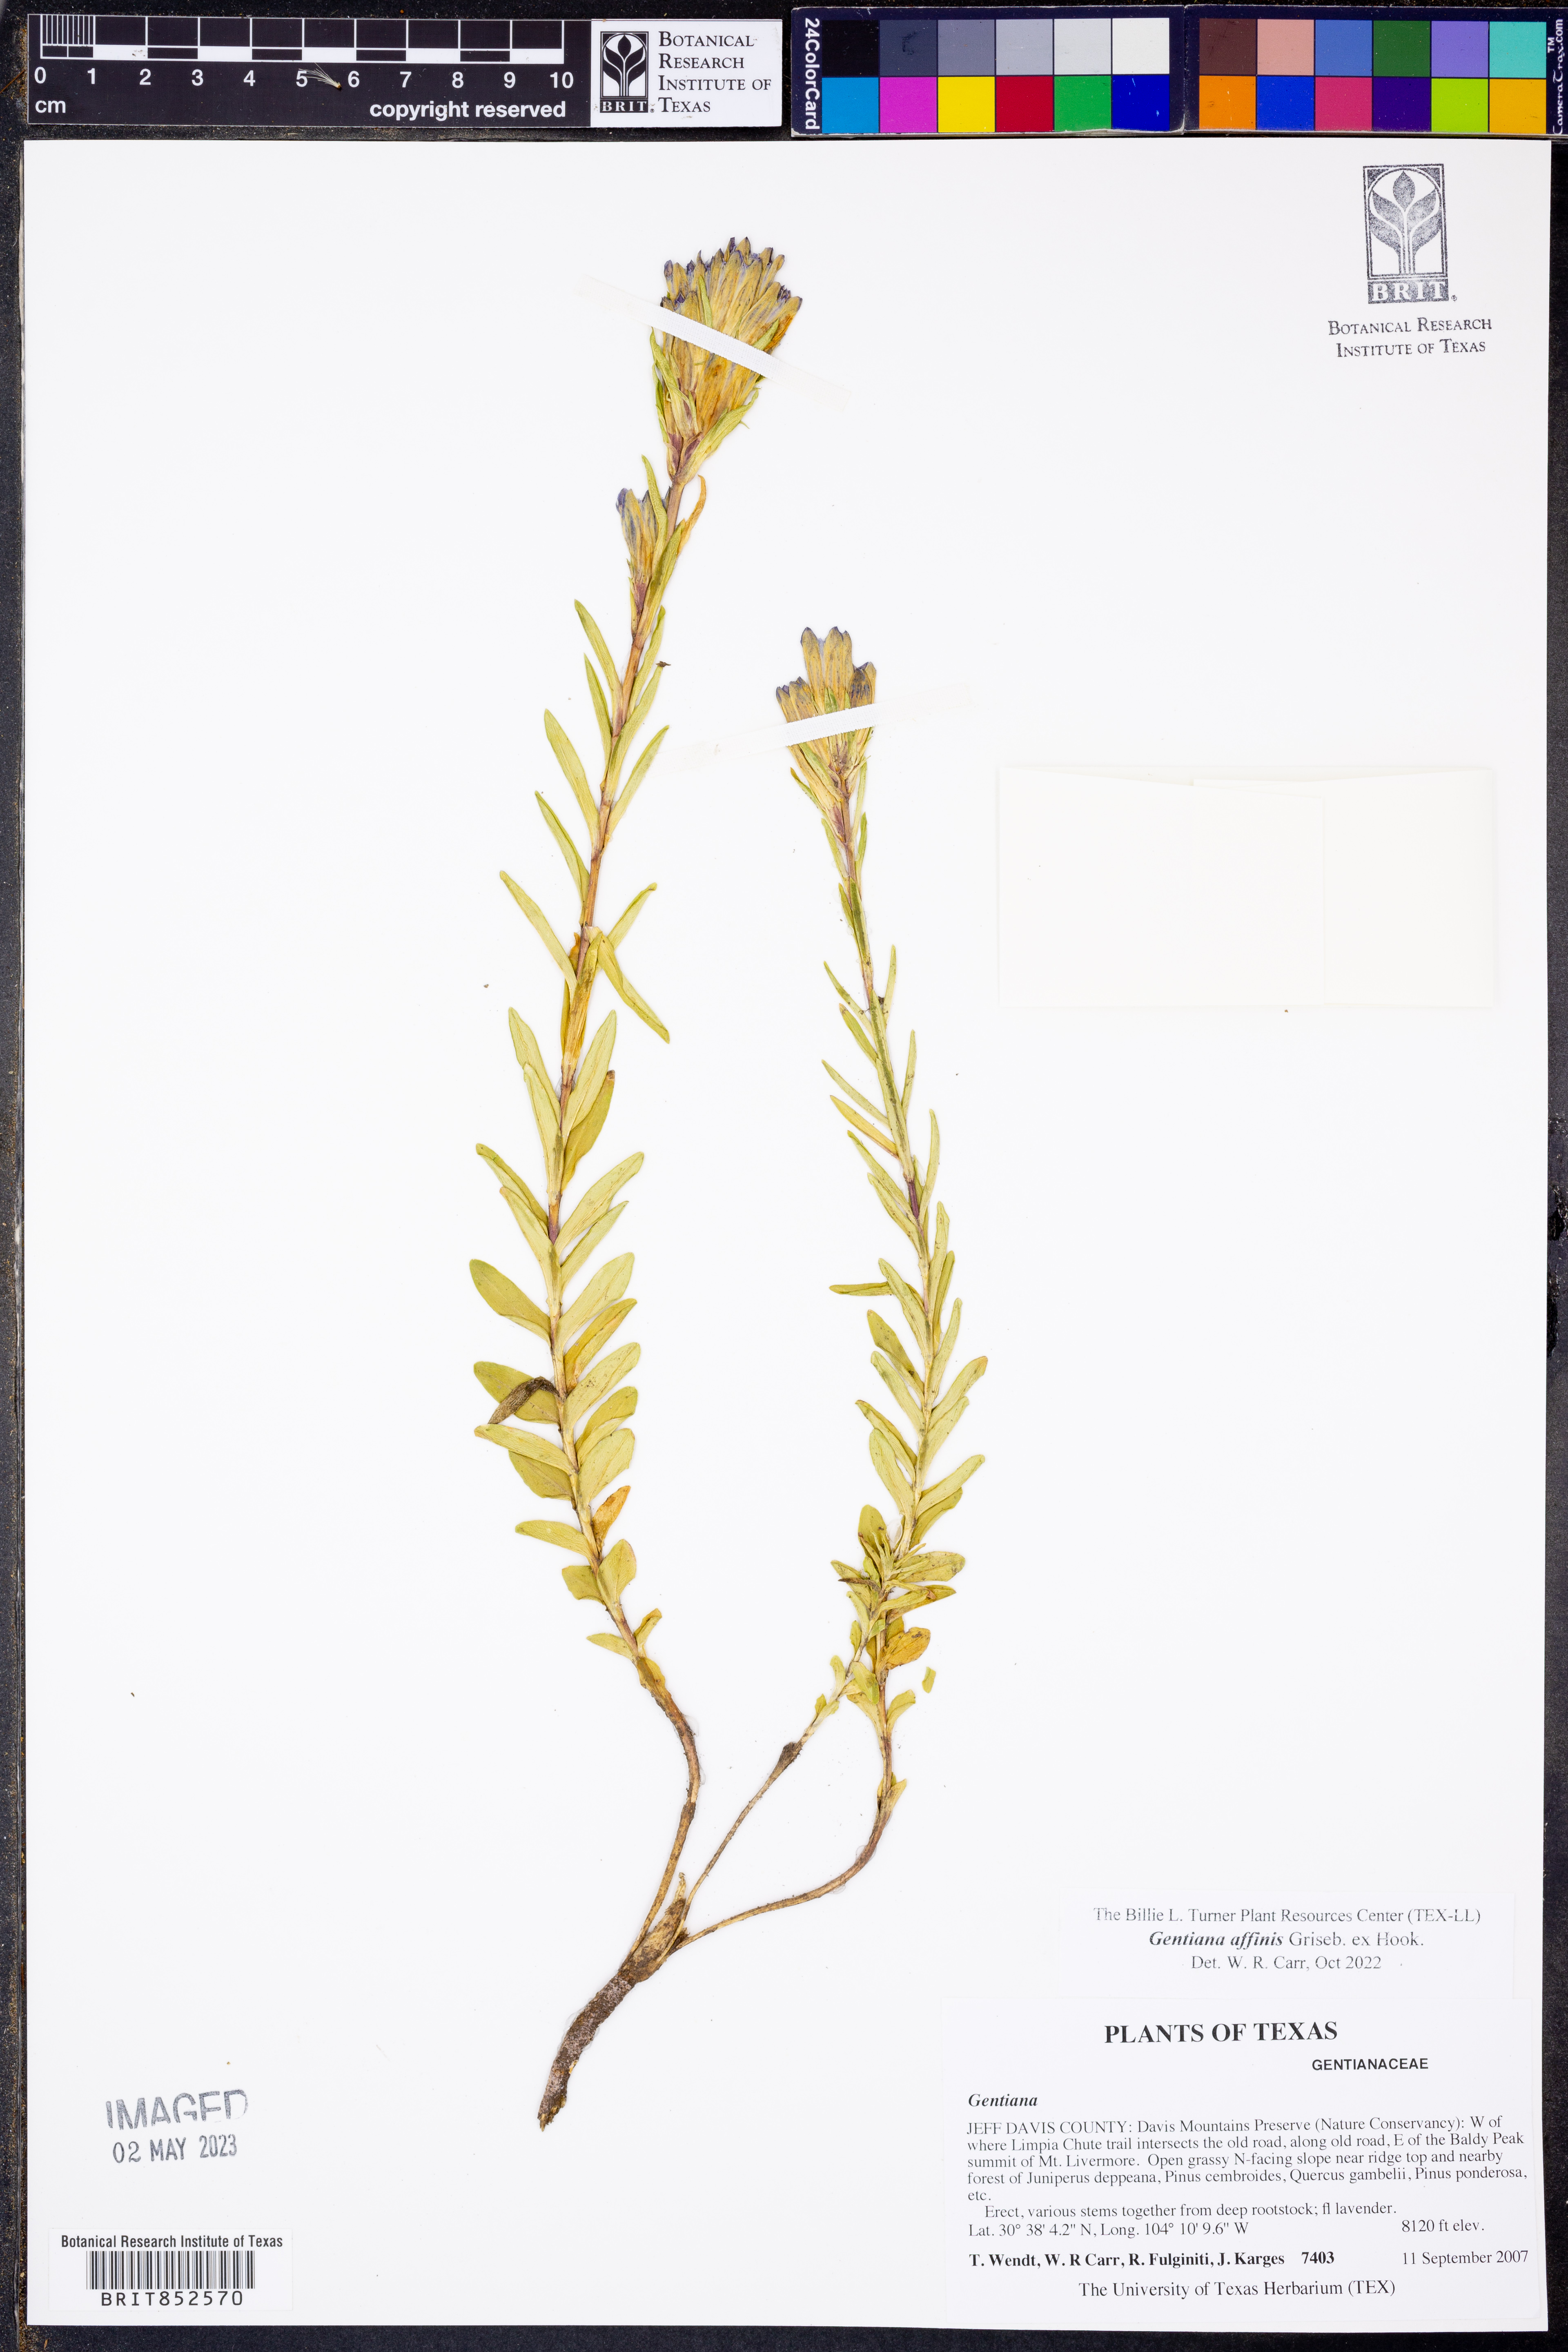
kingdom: Plantae
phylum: Tracheophyta
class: Magnoliopsida
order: Gentianales
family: Gentianaceae
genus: Gentiana
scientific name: Gentiana affinis
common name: Rocky mountain gentian
